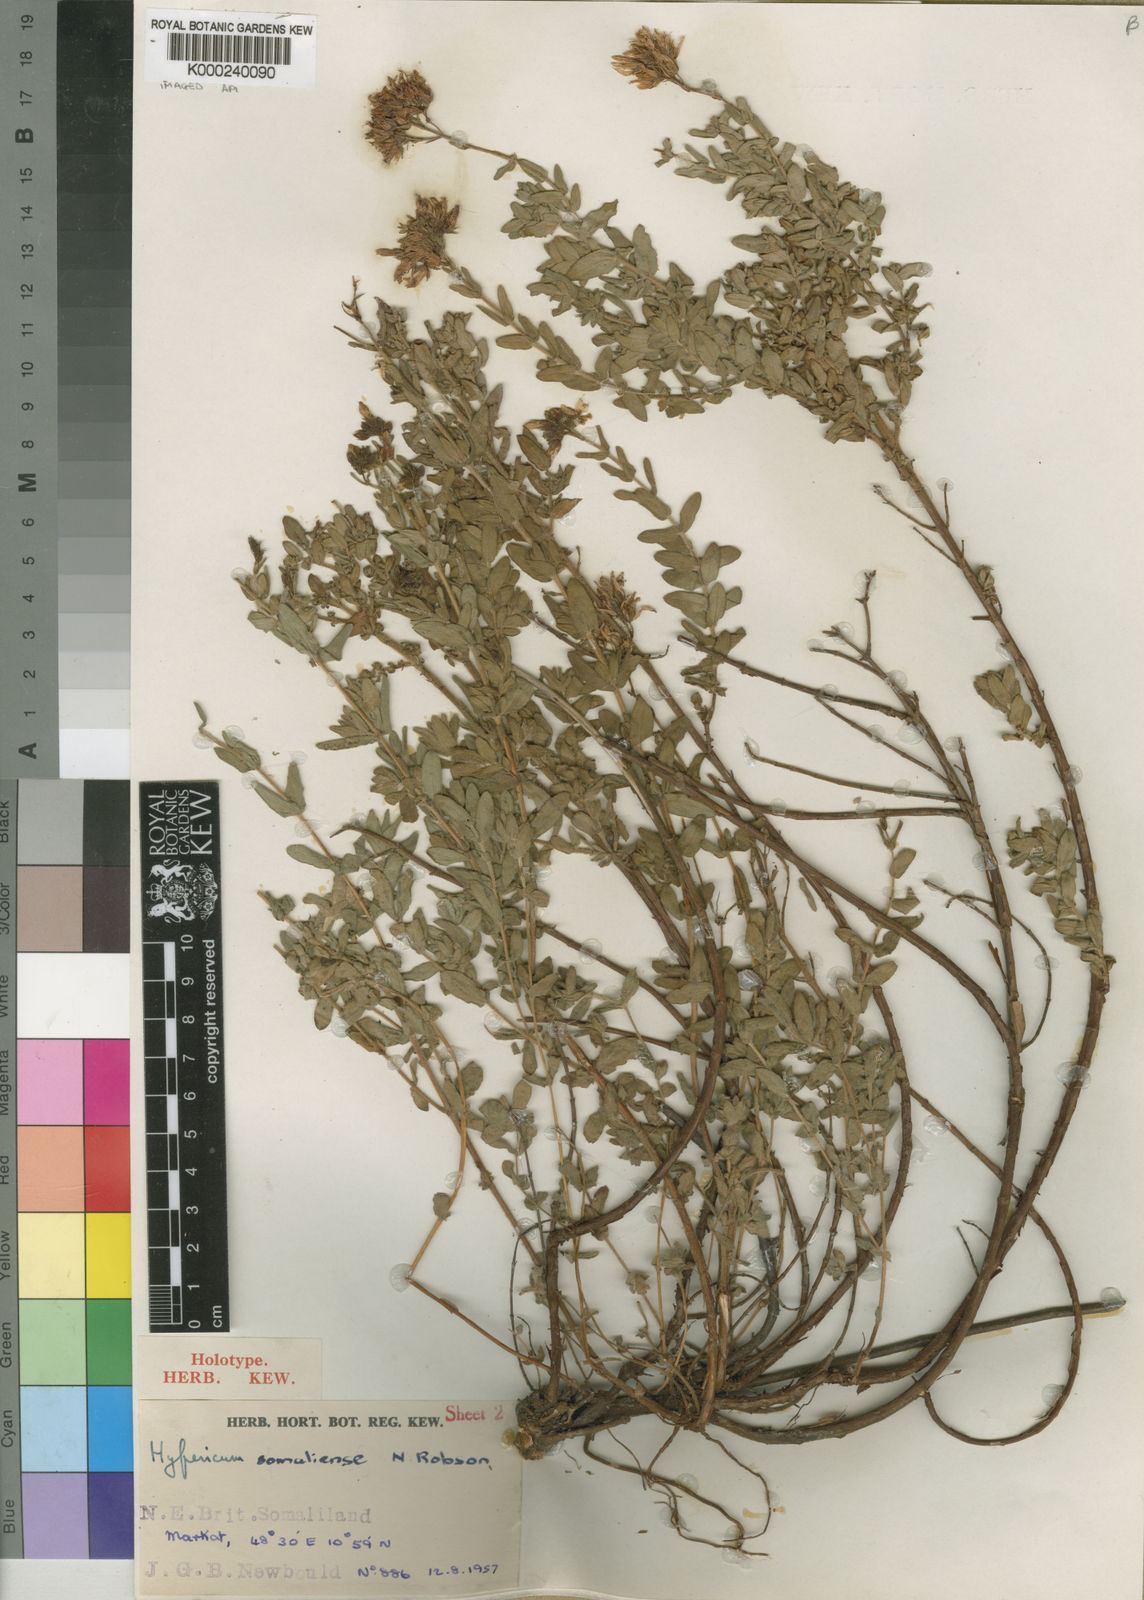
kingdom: Plantae
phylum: Tracheophyta
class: Magnoliopsida
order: Malpighiales
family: Hypericaceae
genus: Hypericum
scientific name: Hypericum somaliense
